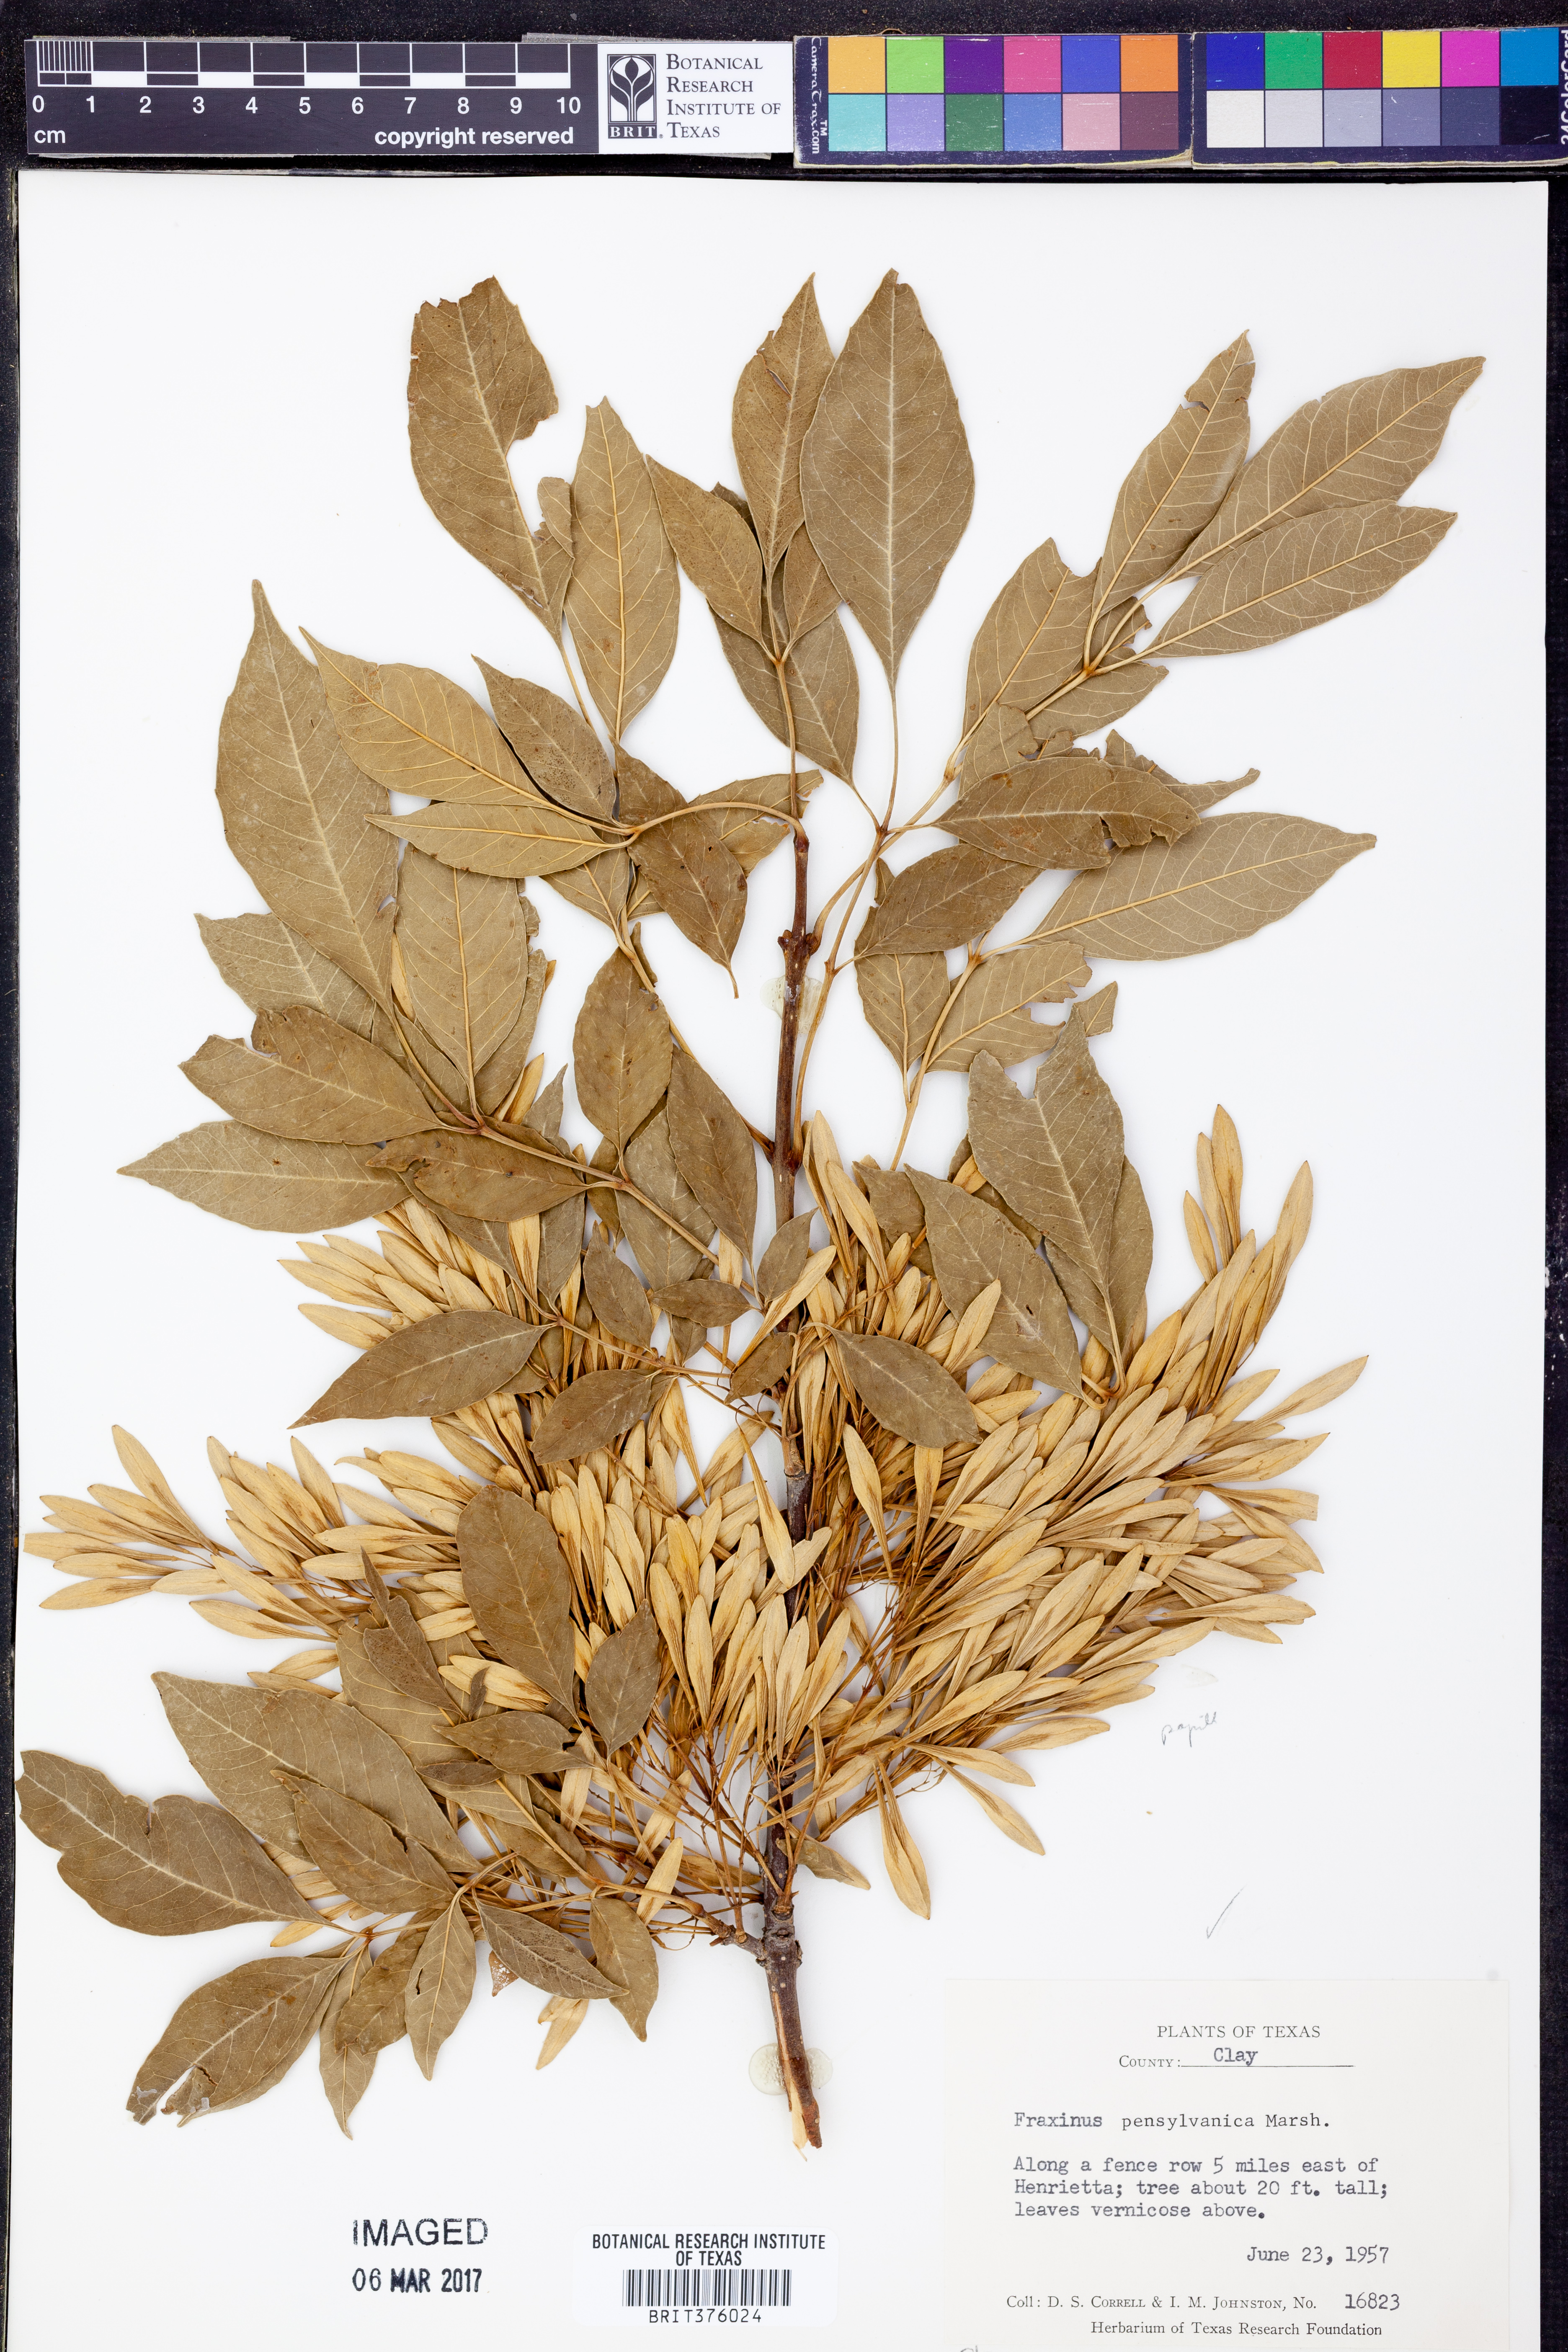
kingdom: Plantae
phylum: Tracheophyta
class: Magnoliopsida
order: Lamiales
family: Oleaceae
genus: Fraxinus
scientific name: Fraxinus pennsylvanica
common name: Green ash
